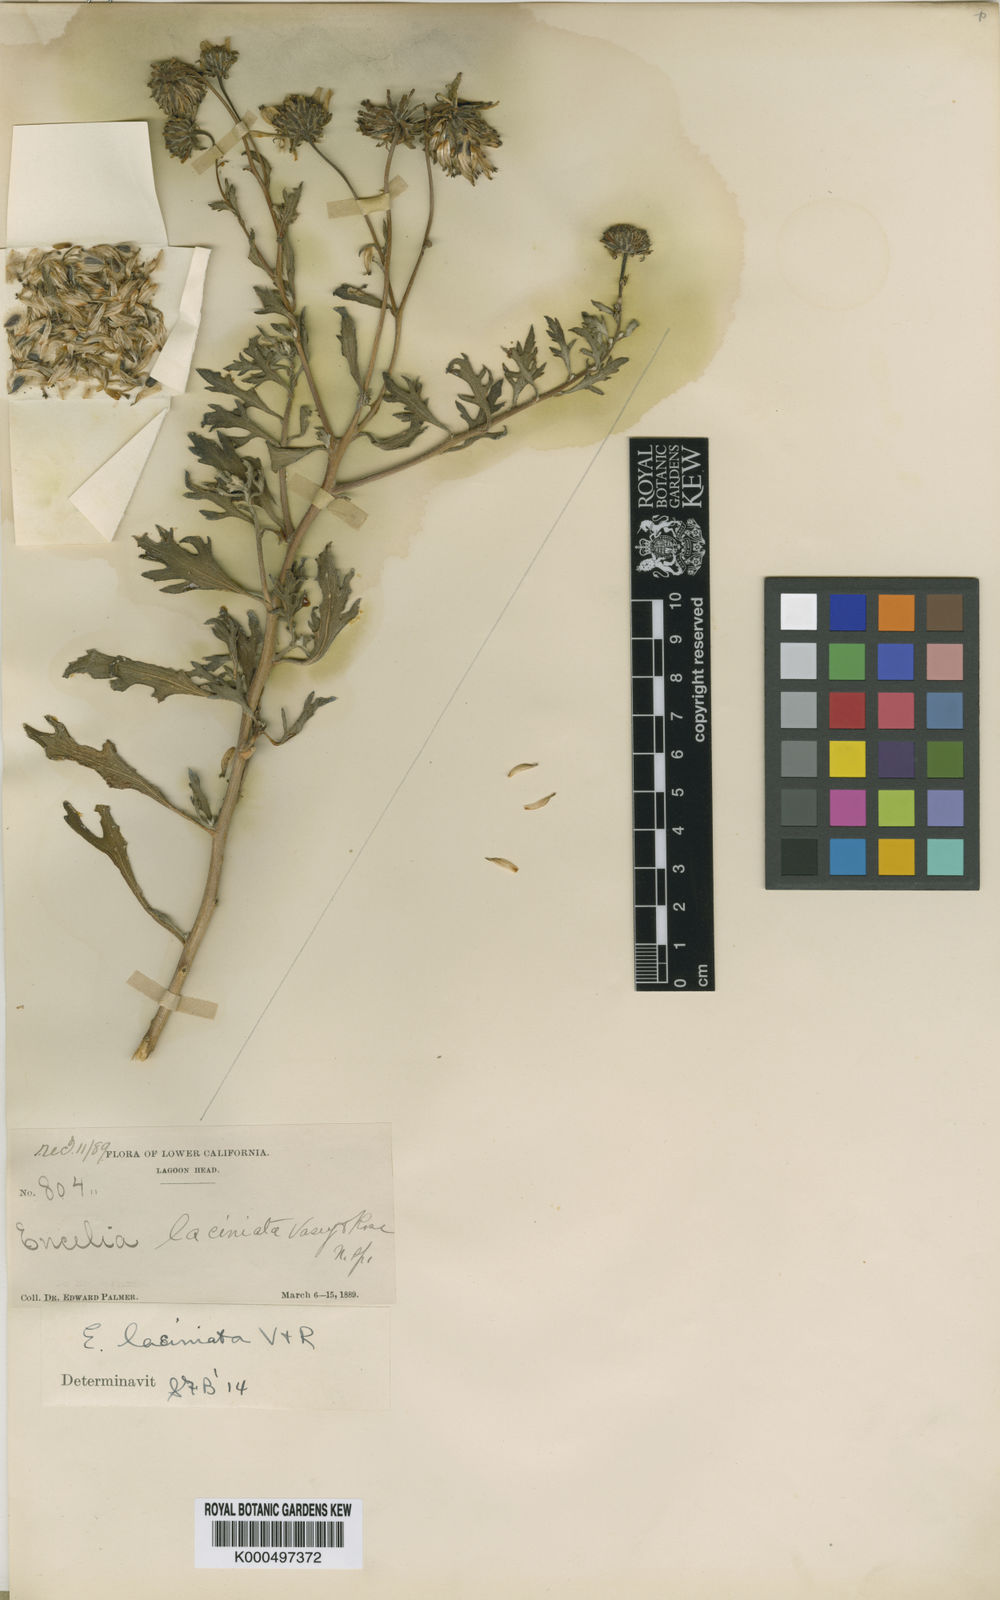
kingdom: Plantae
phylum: Tracheophyta
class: Magnoliopsida
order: Asterales
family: Asteraceae
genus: Encelia
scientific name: Encelia laciniata
